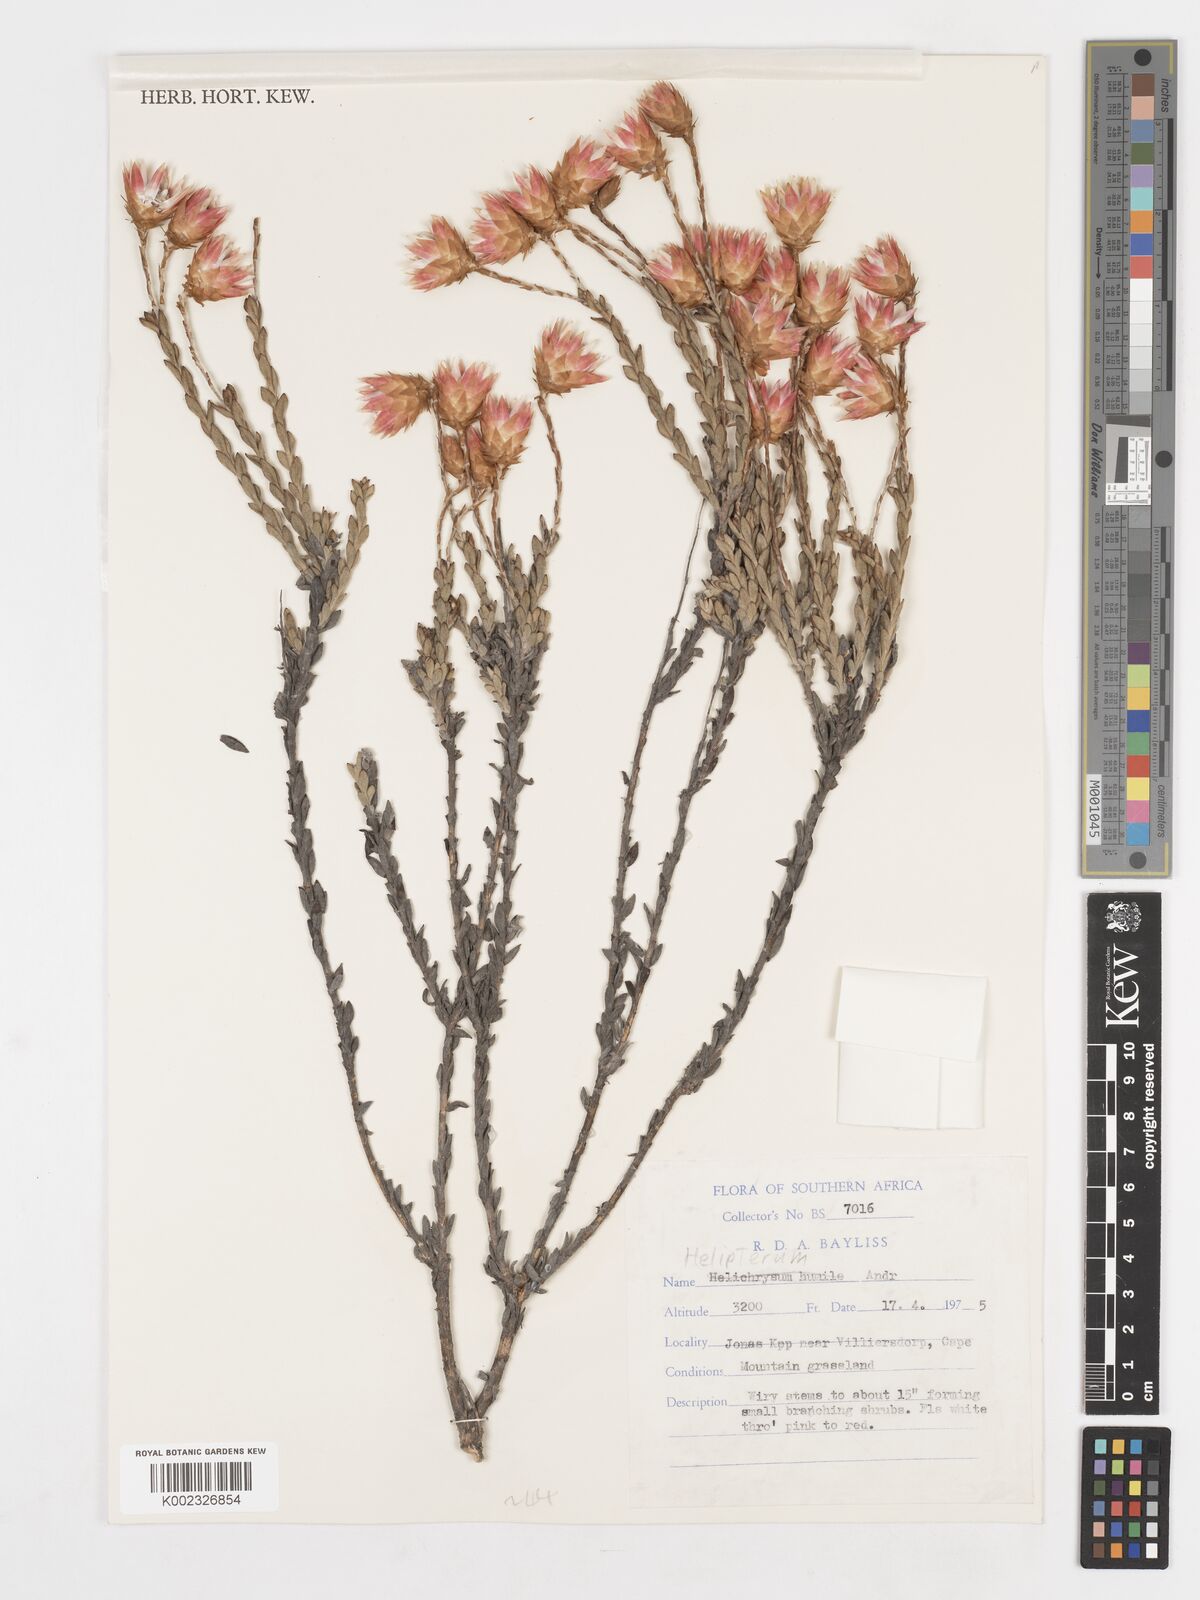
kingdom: Plantae
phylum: Tracheophyta
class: Magnoliopsida
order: Asterales
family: Asteraceae
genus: Syncarpha
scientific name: Syncarpha
